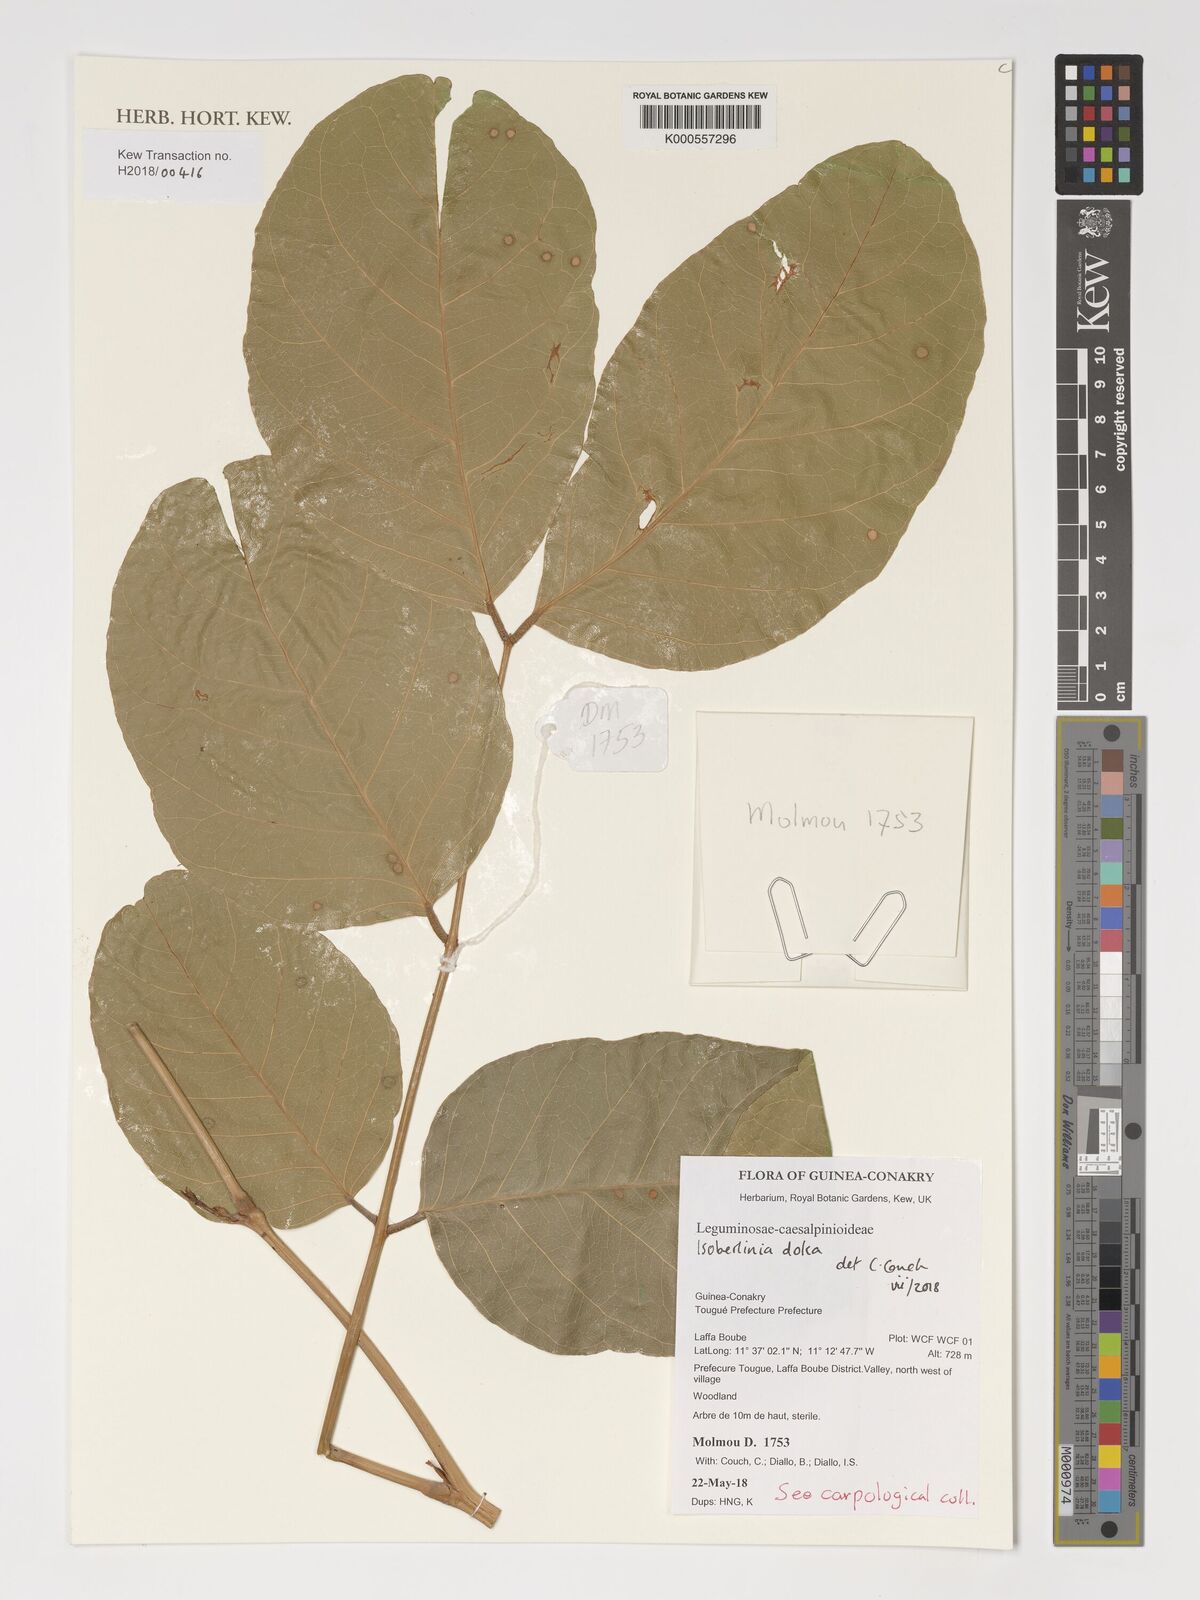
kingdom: Plantae
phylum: Tracheophyta
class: Magnoliopsida
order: Fabales
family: Fabaceae
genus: Isoberlinia
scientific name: Isoberlinia doka
